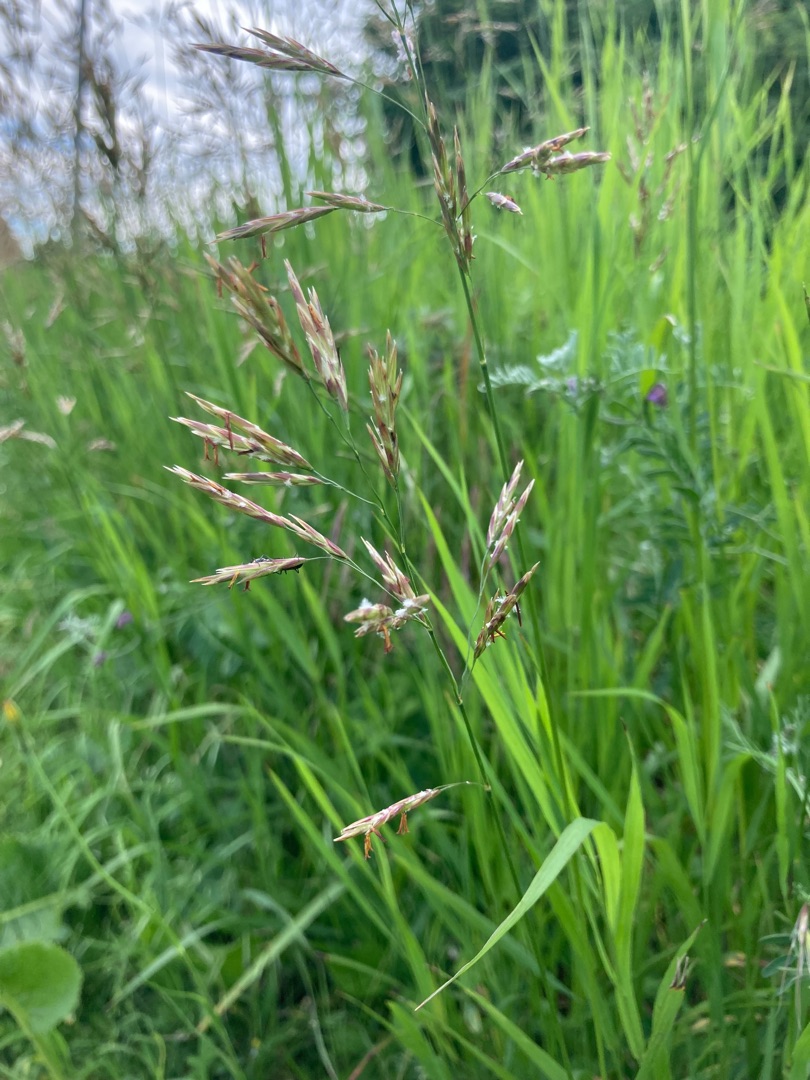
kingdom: Plantae
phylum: Tracheophyta
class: Liliopsida
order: Poales
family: Poaceae
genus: Bromus
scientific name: Bromus inermis
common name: Stakløs hejre
